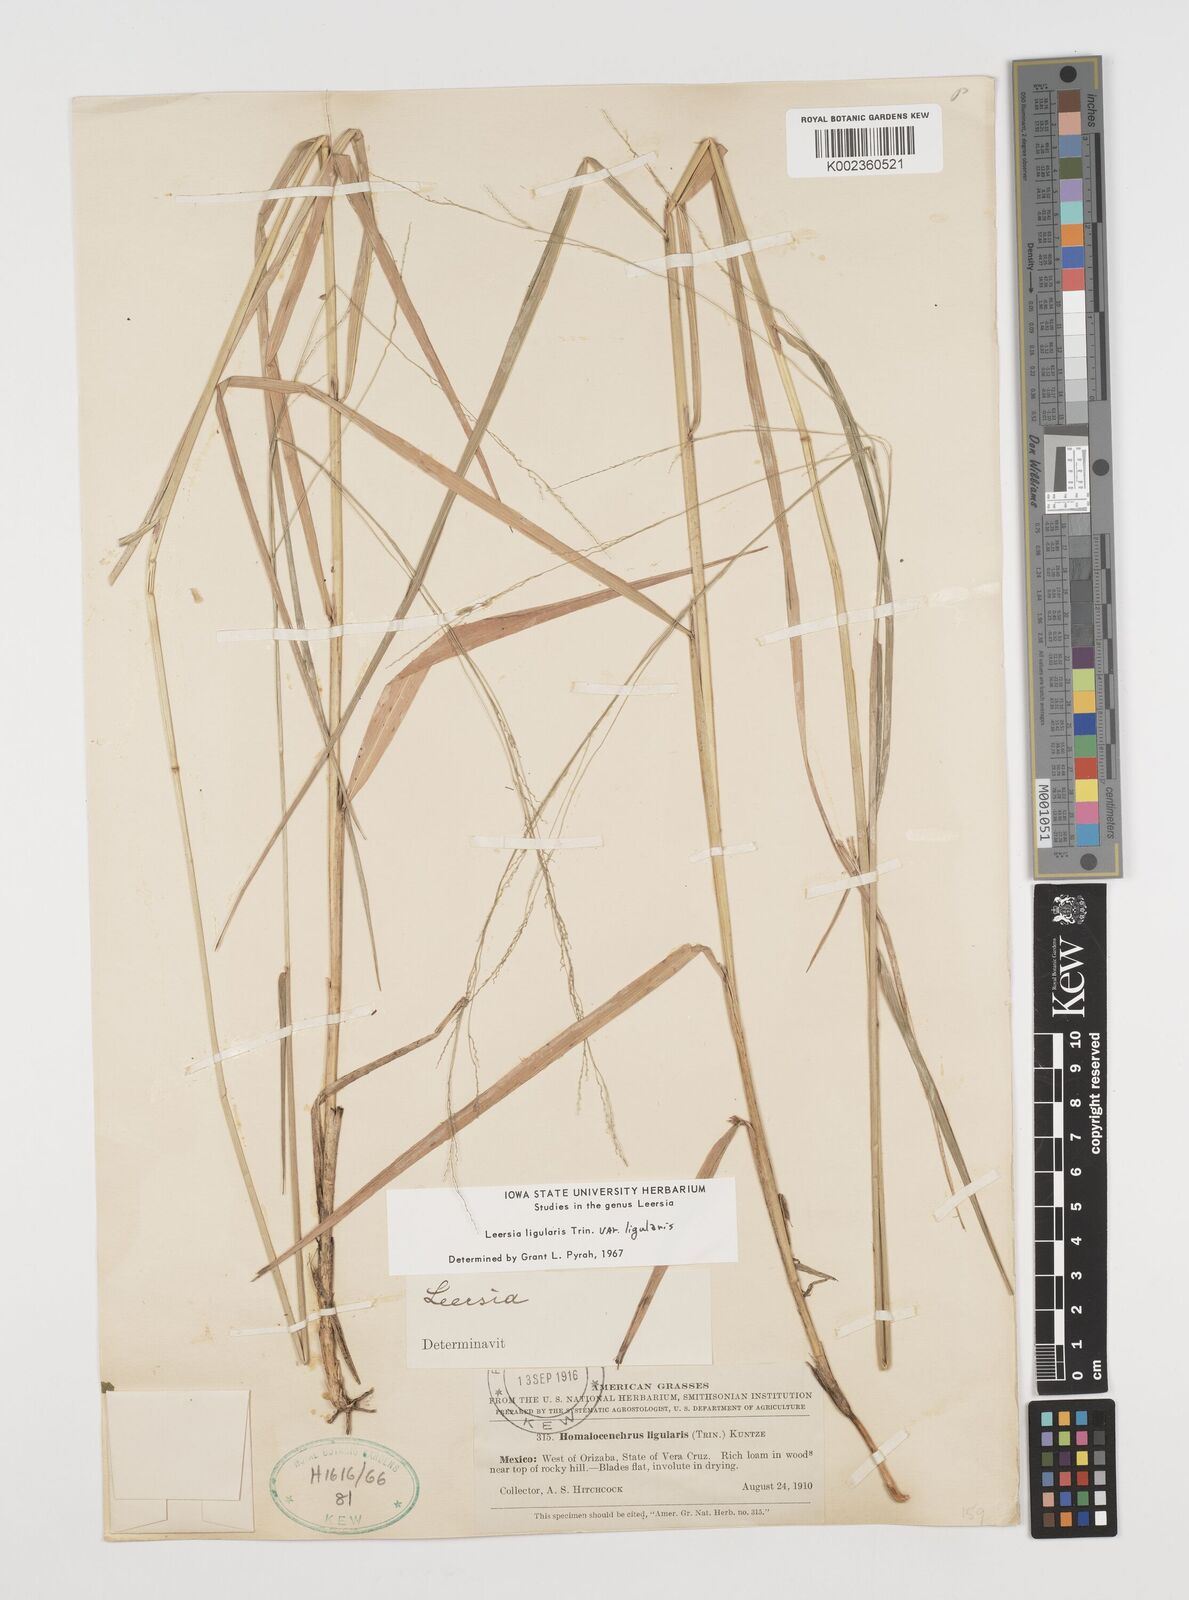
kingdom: Plantae
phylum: Tracheophyta
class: Liliopsida
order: Poales
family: Poaceae
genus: Leersia
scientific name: Leersia ligularis
